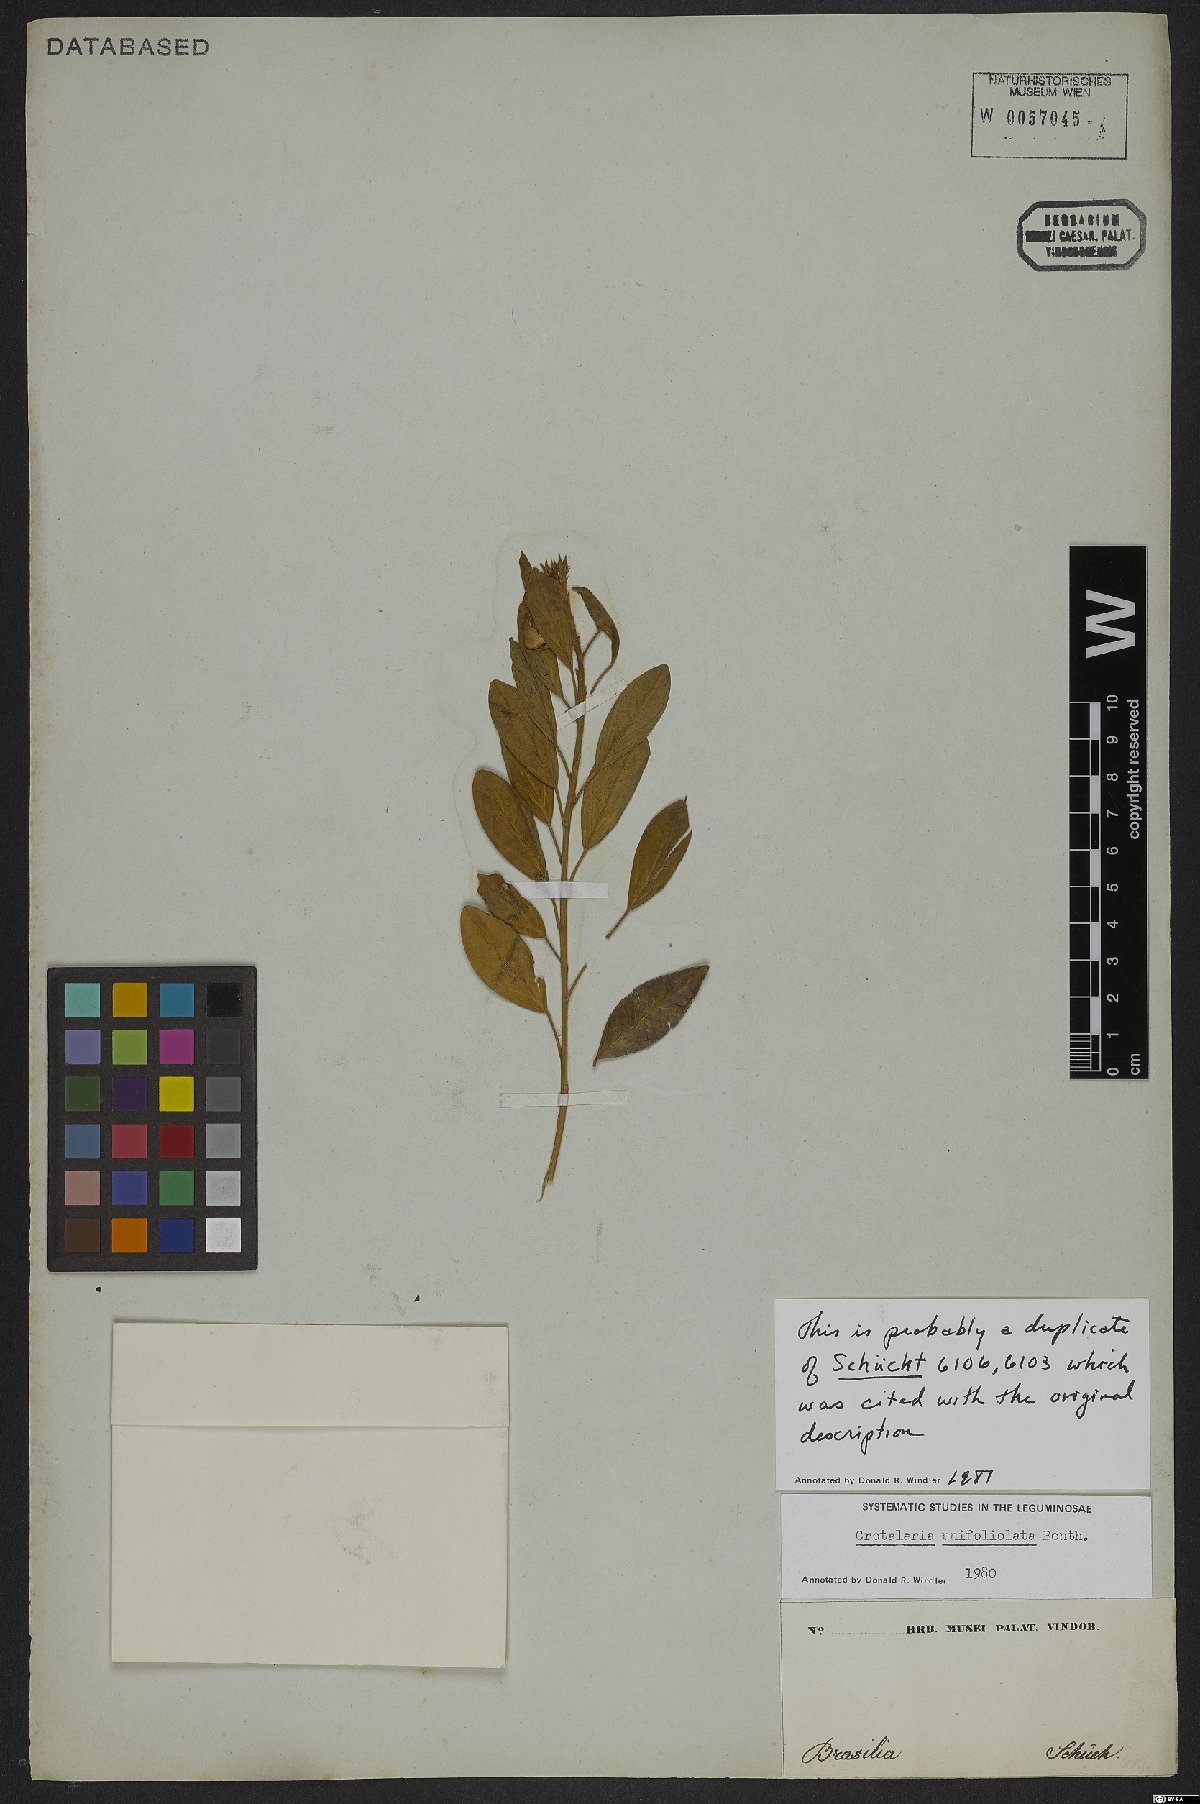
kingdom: Plantae
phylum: Tracheophyta
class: Magnoliopsida
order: Fabales
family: Fabaceae
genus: Crotalaria
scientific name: Crotalaria unifoliolata
